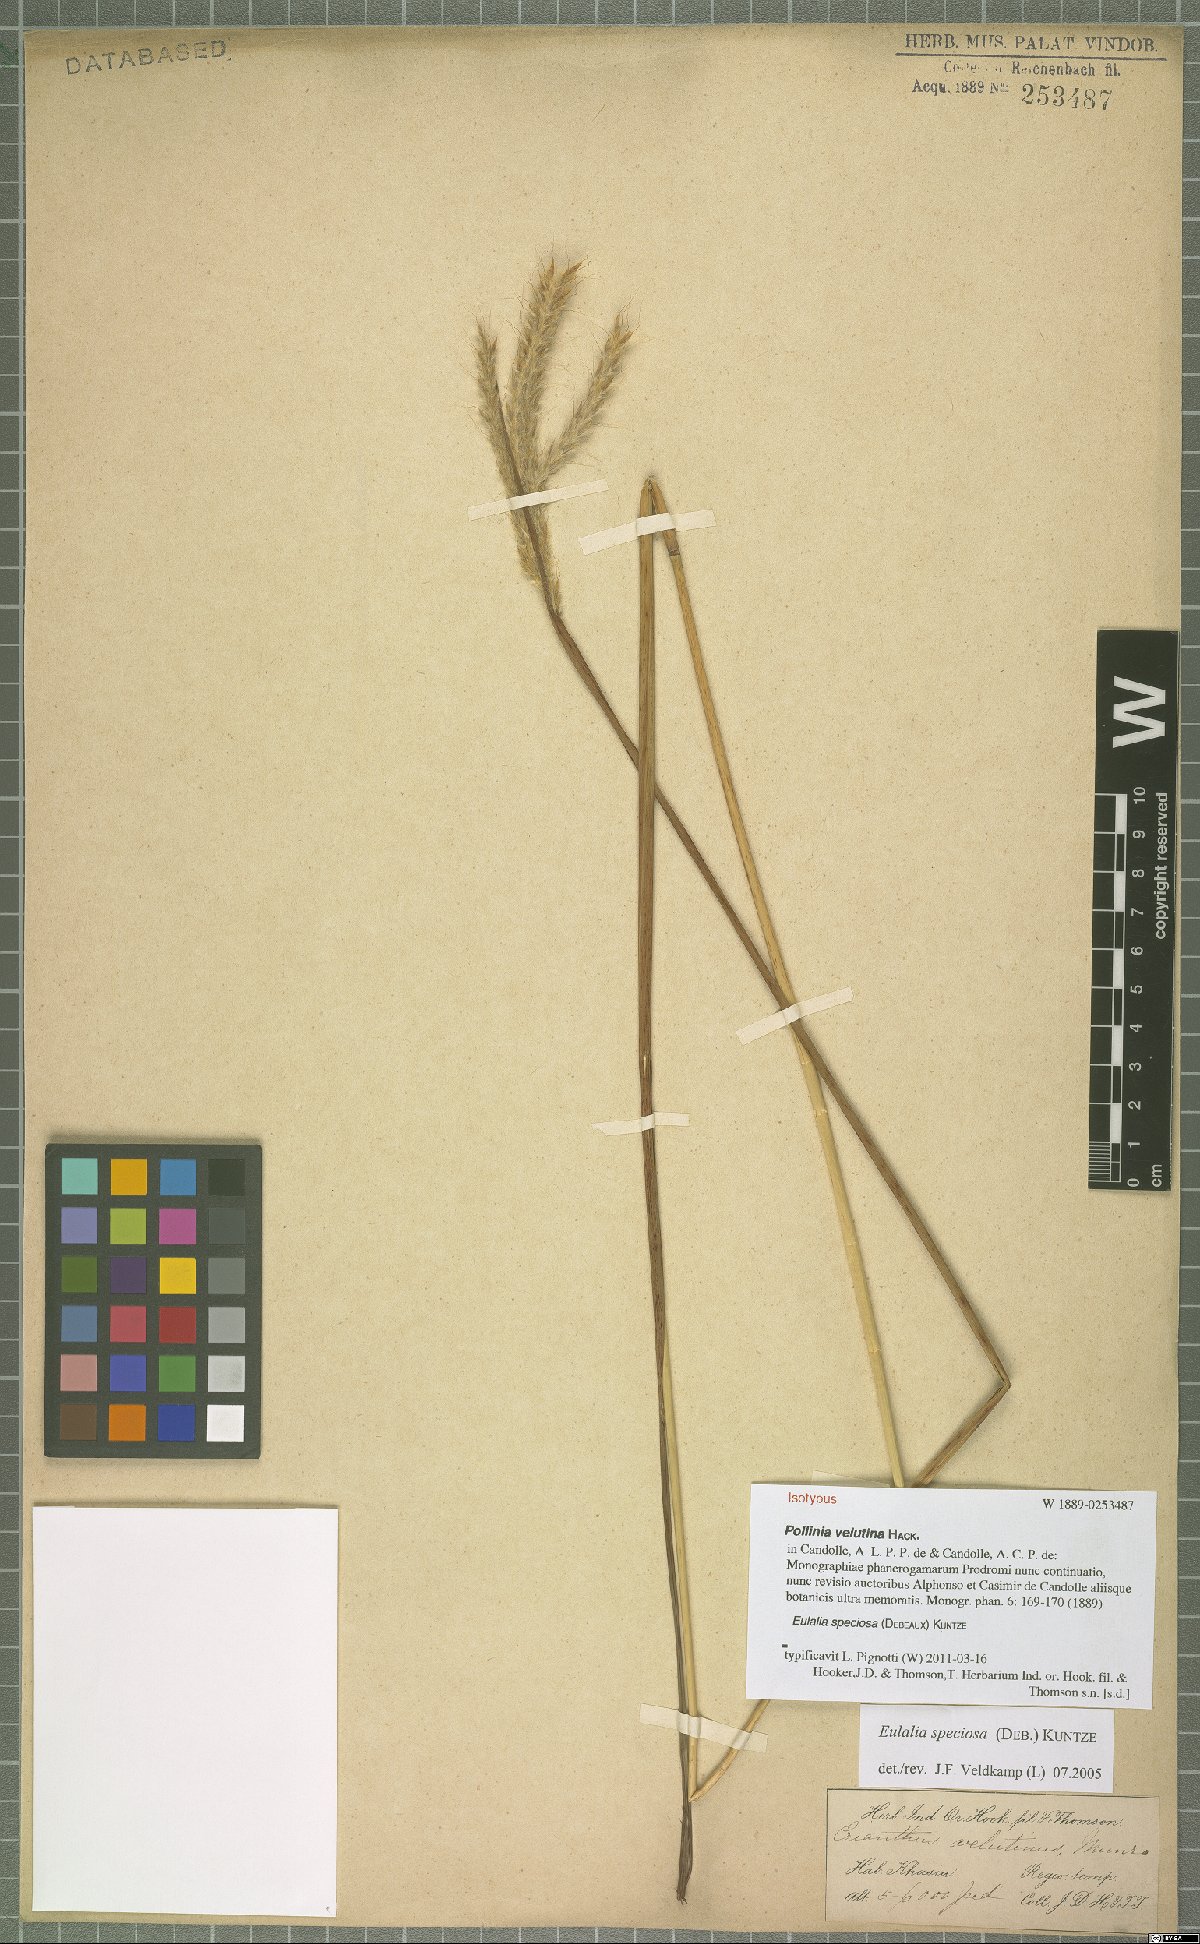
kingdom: Plantae
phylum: Tracheophyta
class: Liliopsida
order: Poales
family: Poaceae
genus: Pseudopogonatherum
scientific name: Pseudopogonatherum speciosum
